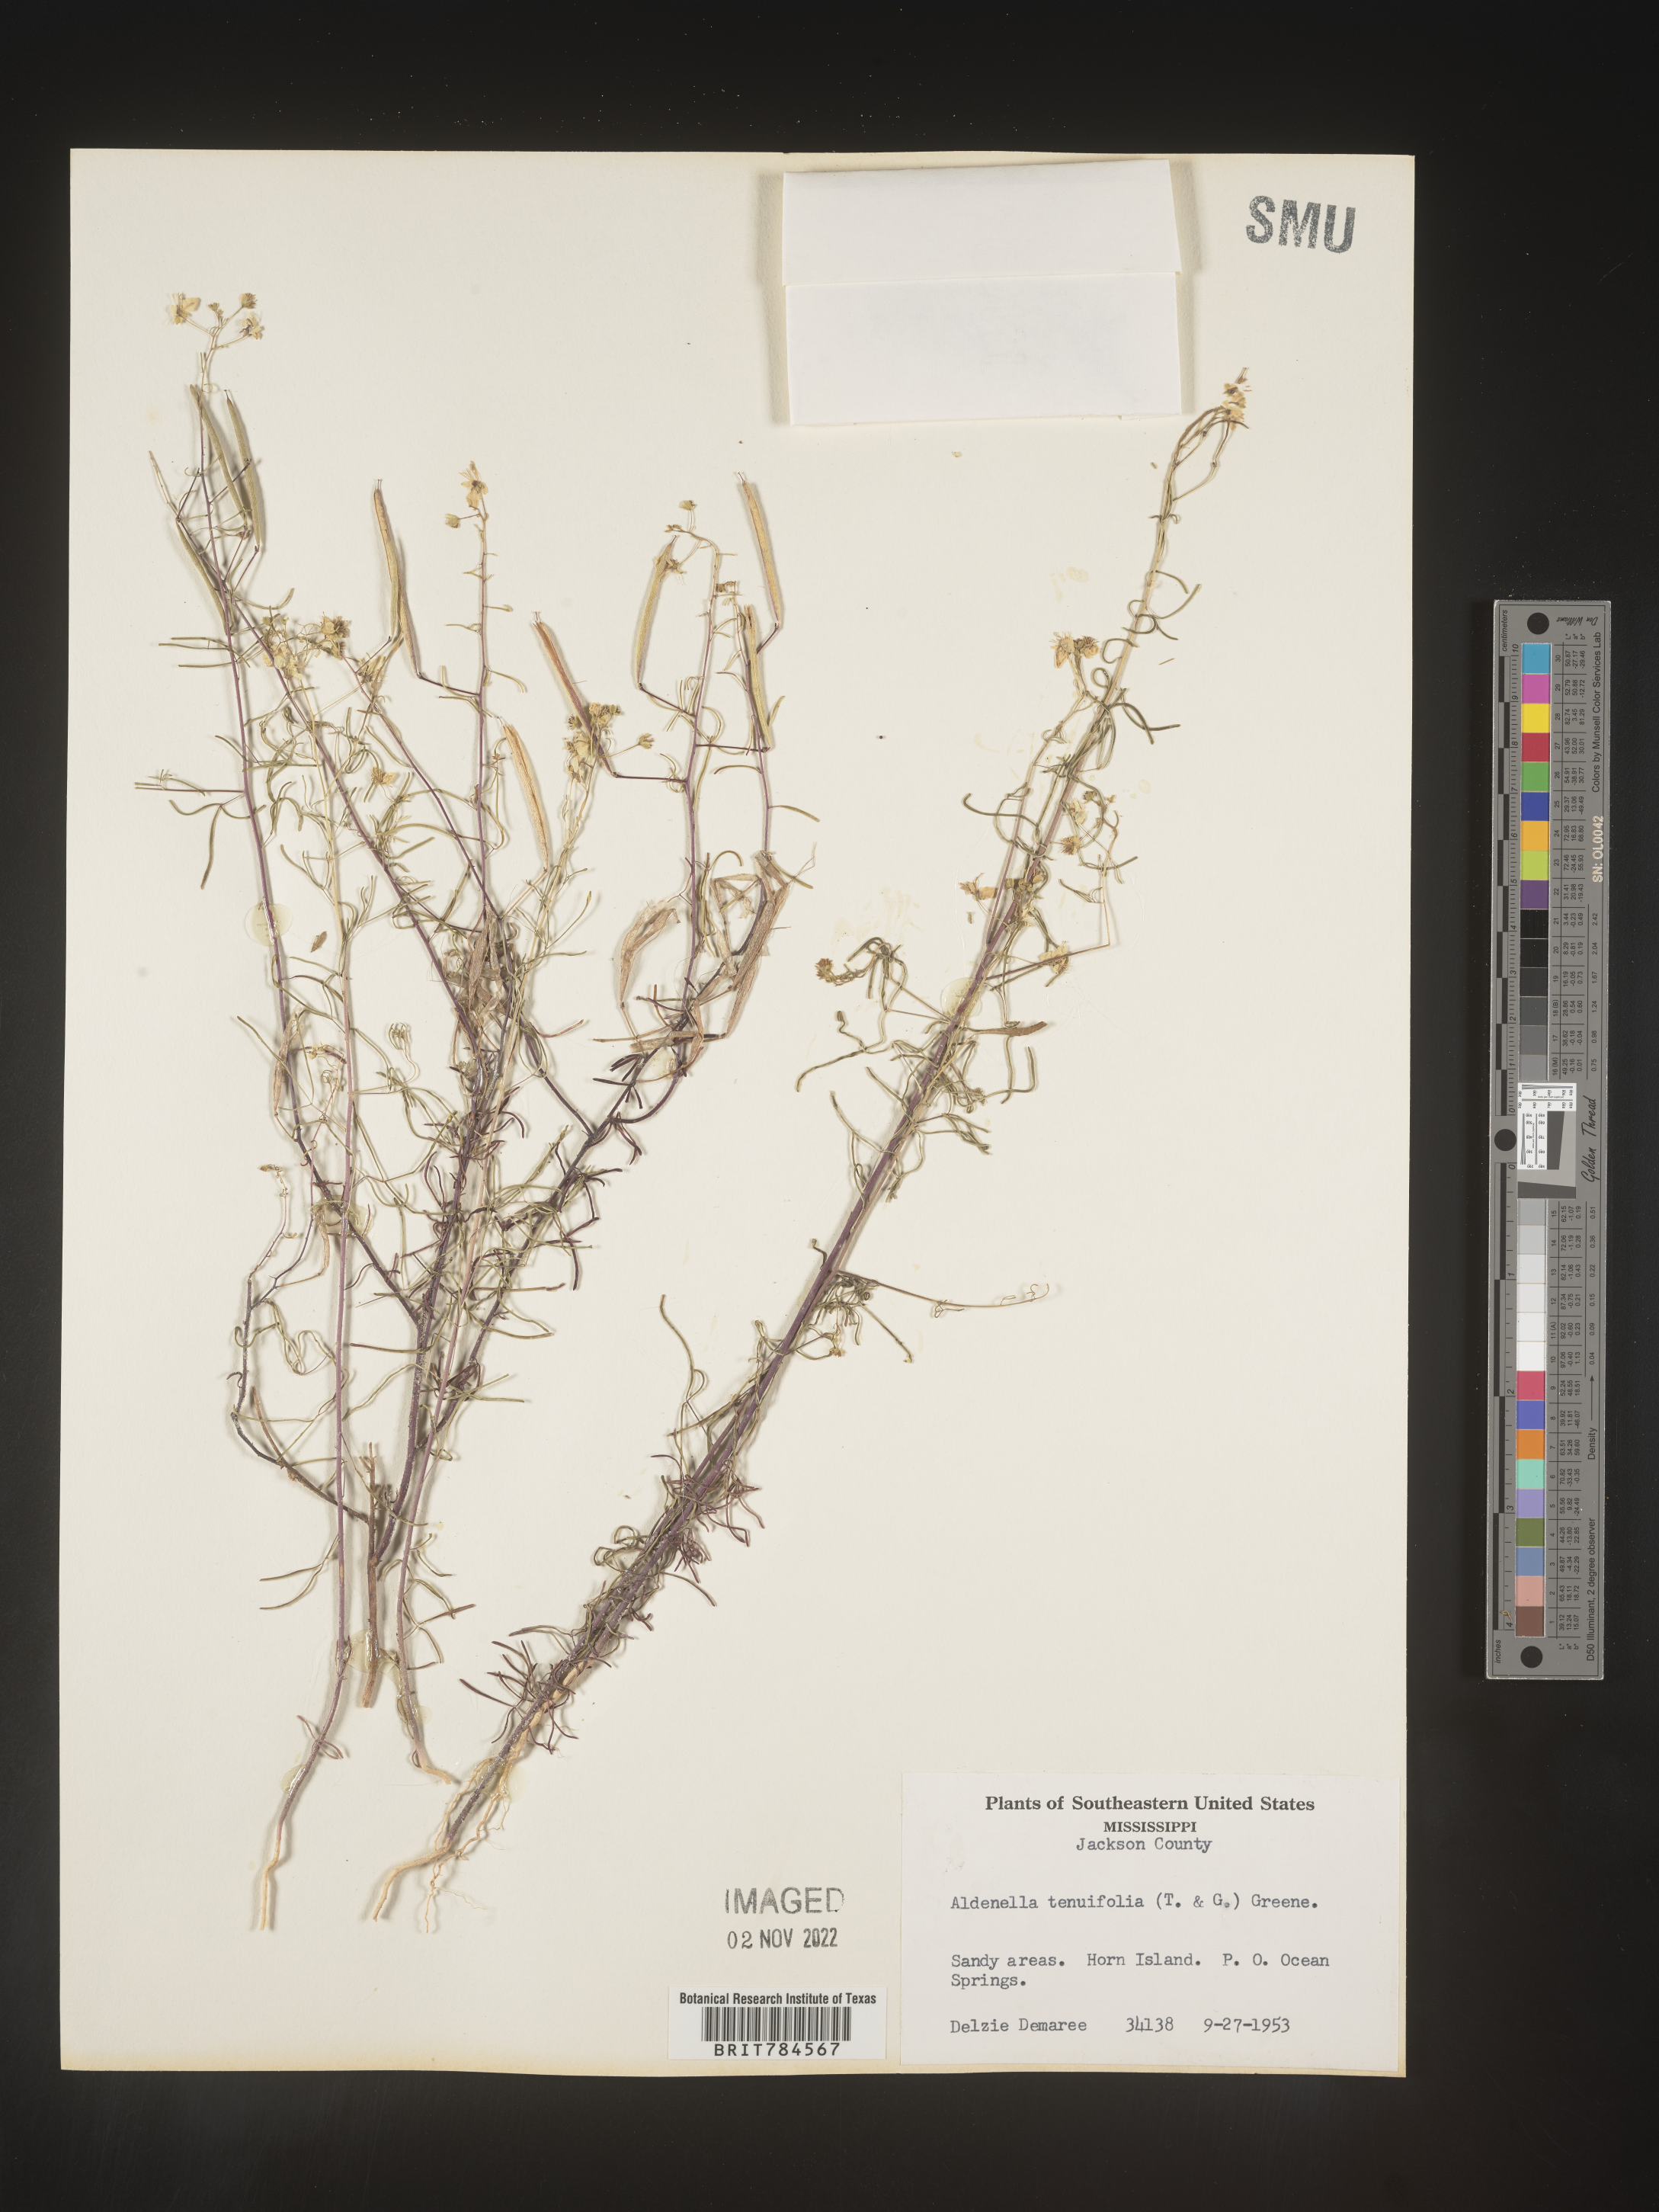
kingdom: Plantae
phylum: Tracheophyta
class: Magnoliopsida
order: Brassicales
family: Cleomaceae
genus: Polanisia
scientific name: Polanisia
